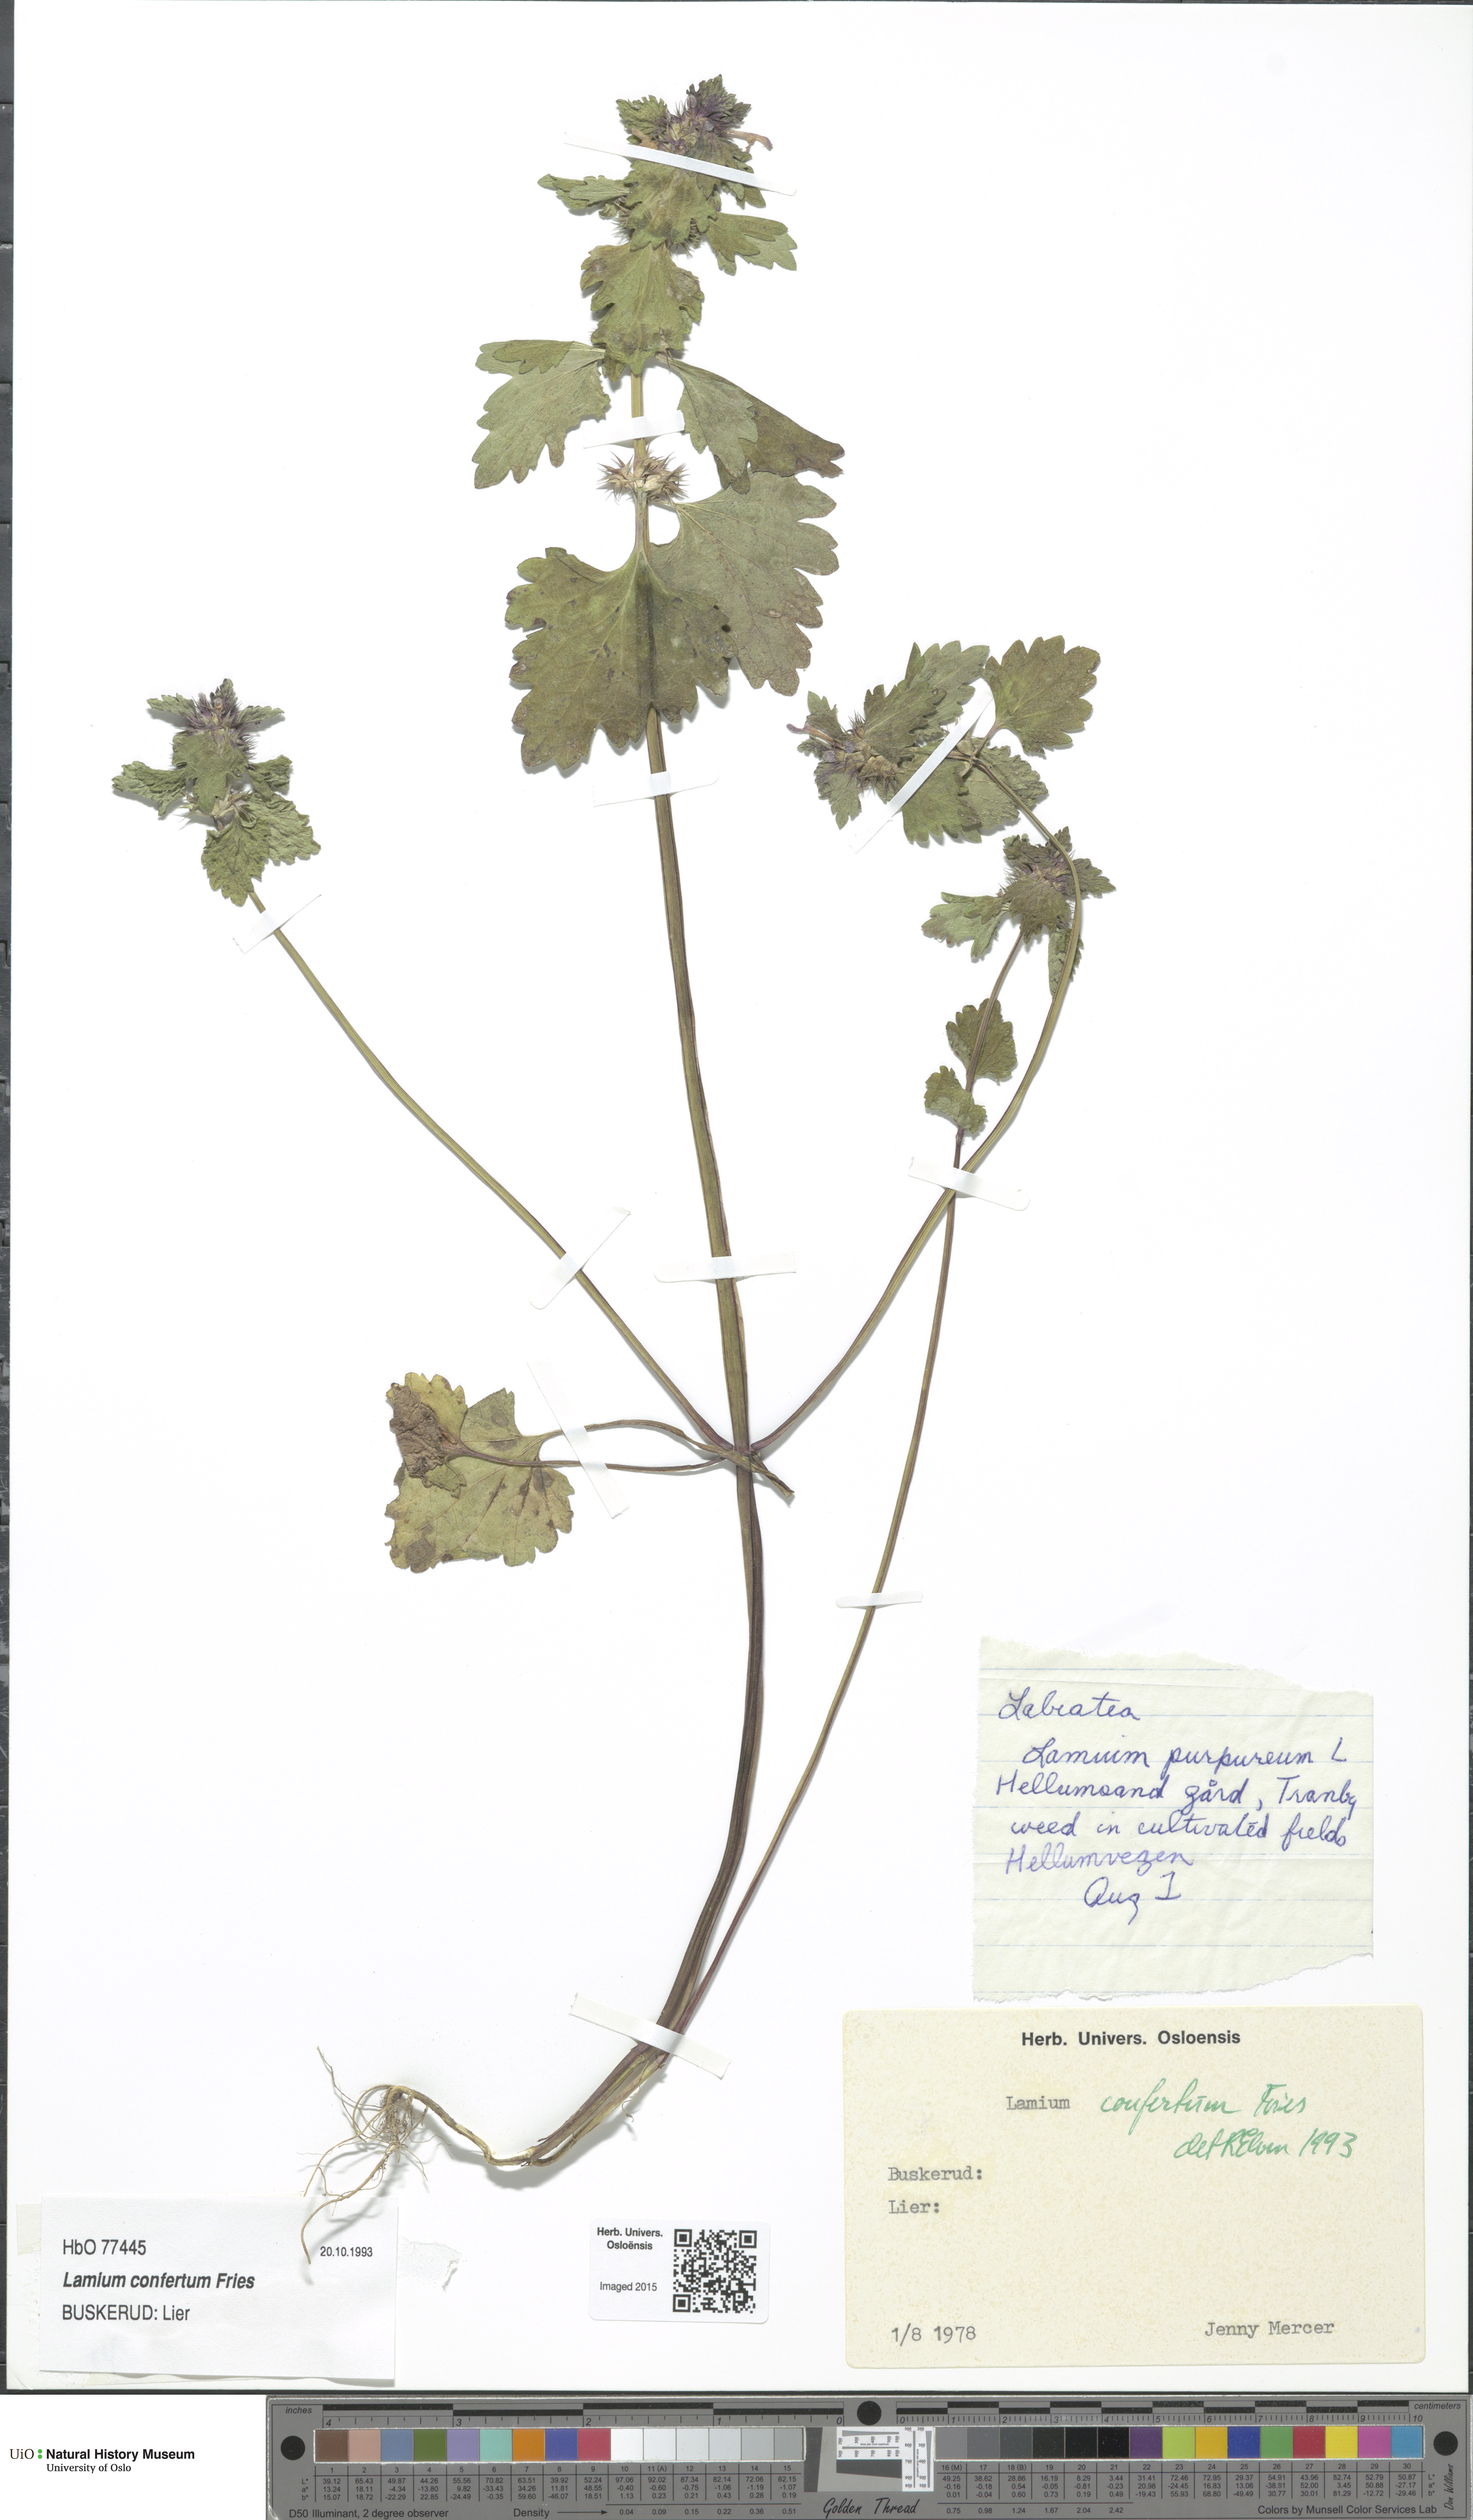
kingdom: Plantae
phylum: Tracheophyta
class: Magnoliopsida
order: Lamiales
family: Lamiaceae
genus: Lamium
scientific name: Lamium confertum
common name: Northern dead-nettle
